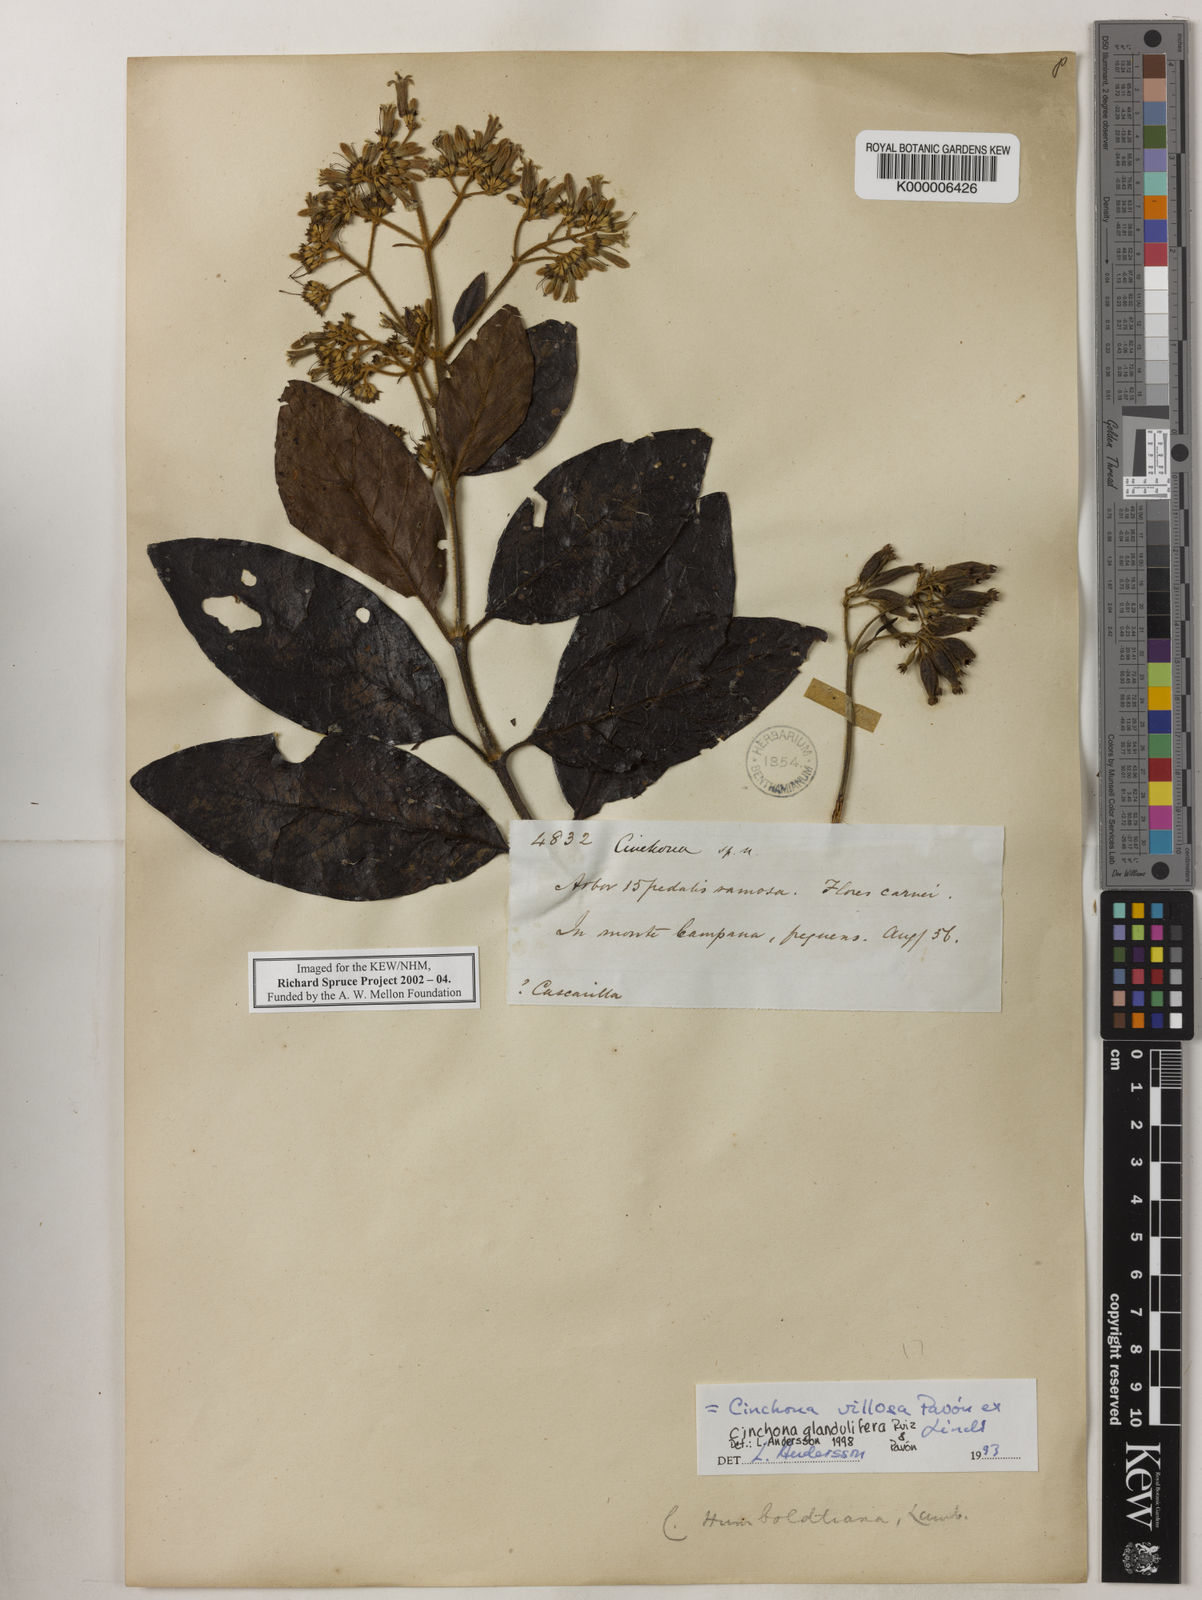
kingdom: Plantae
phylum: Tracheophyta
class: Magnoliopsida
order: Gentianales
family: Rubiaceae
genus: Cinchona
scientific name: Cinchona villosa
